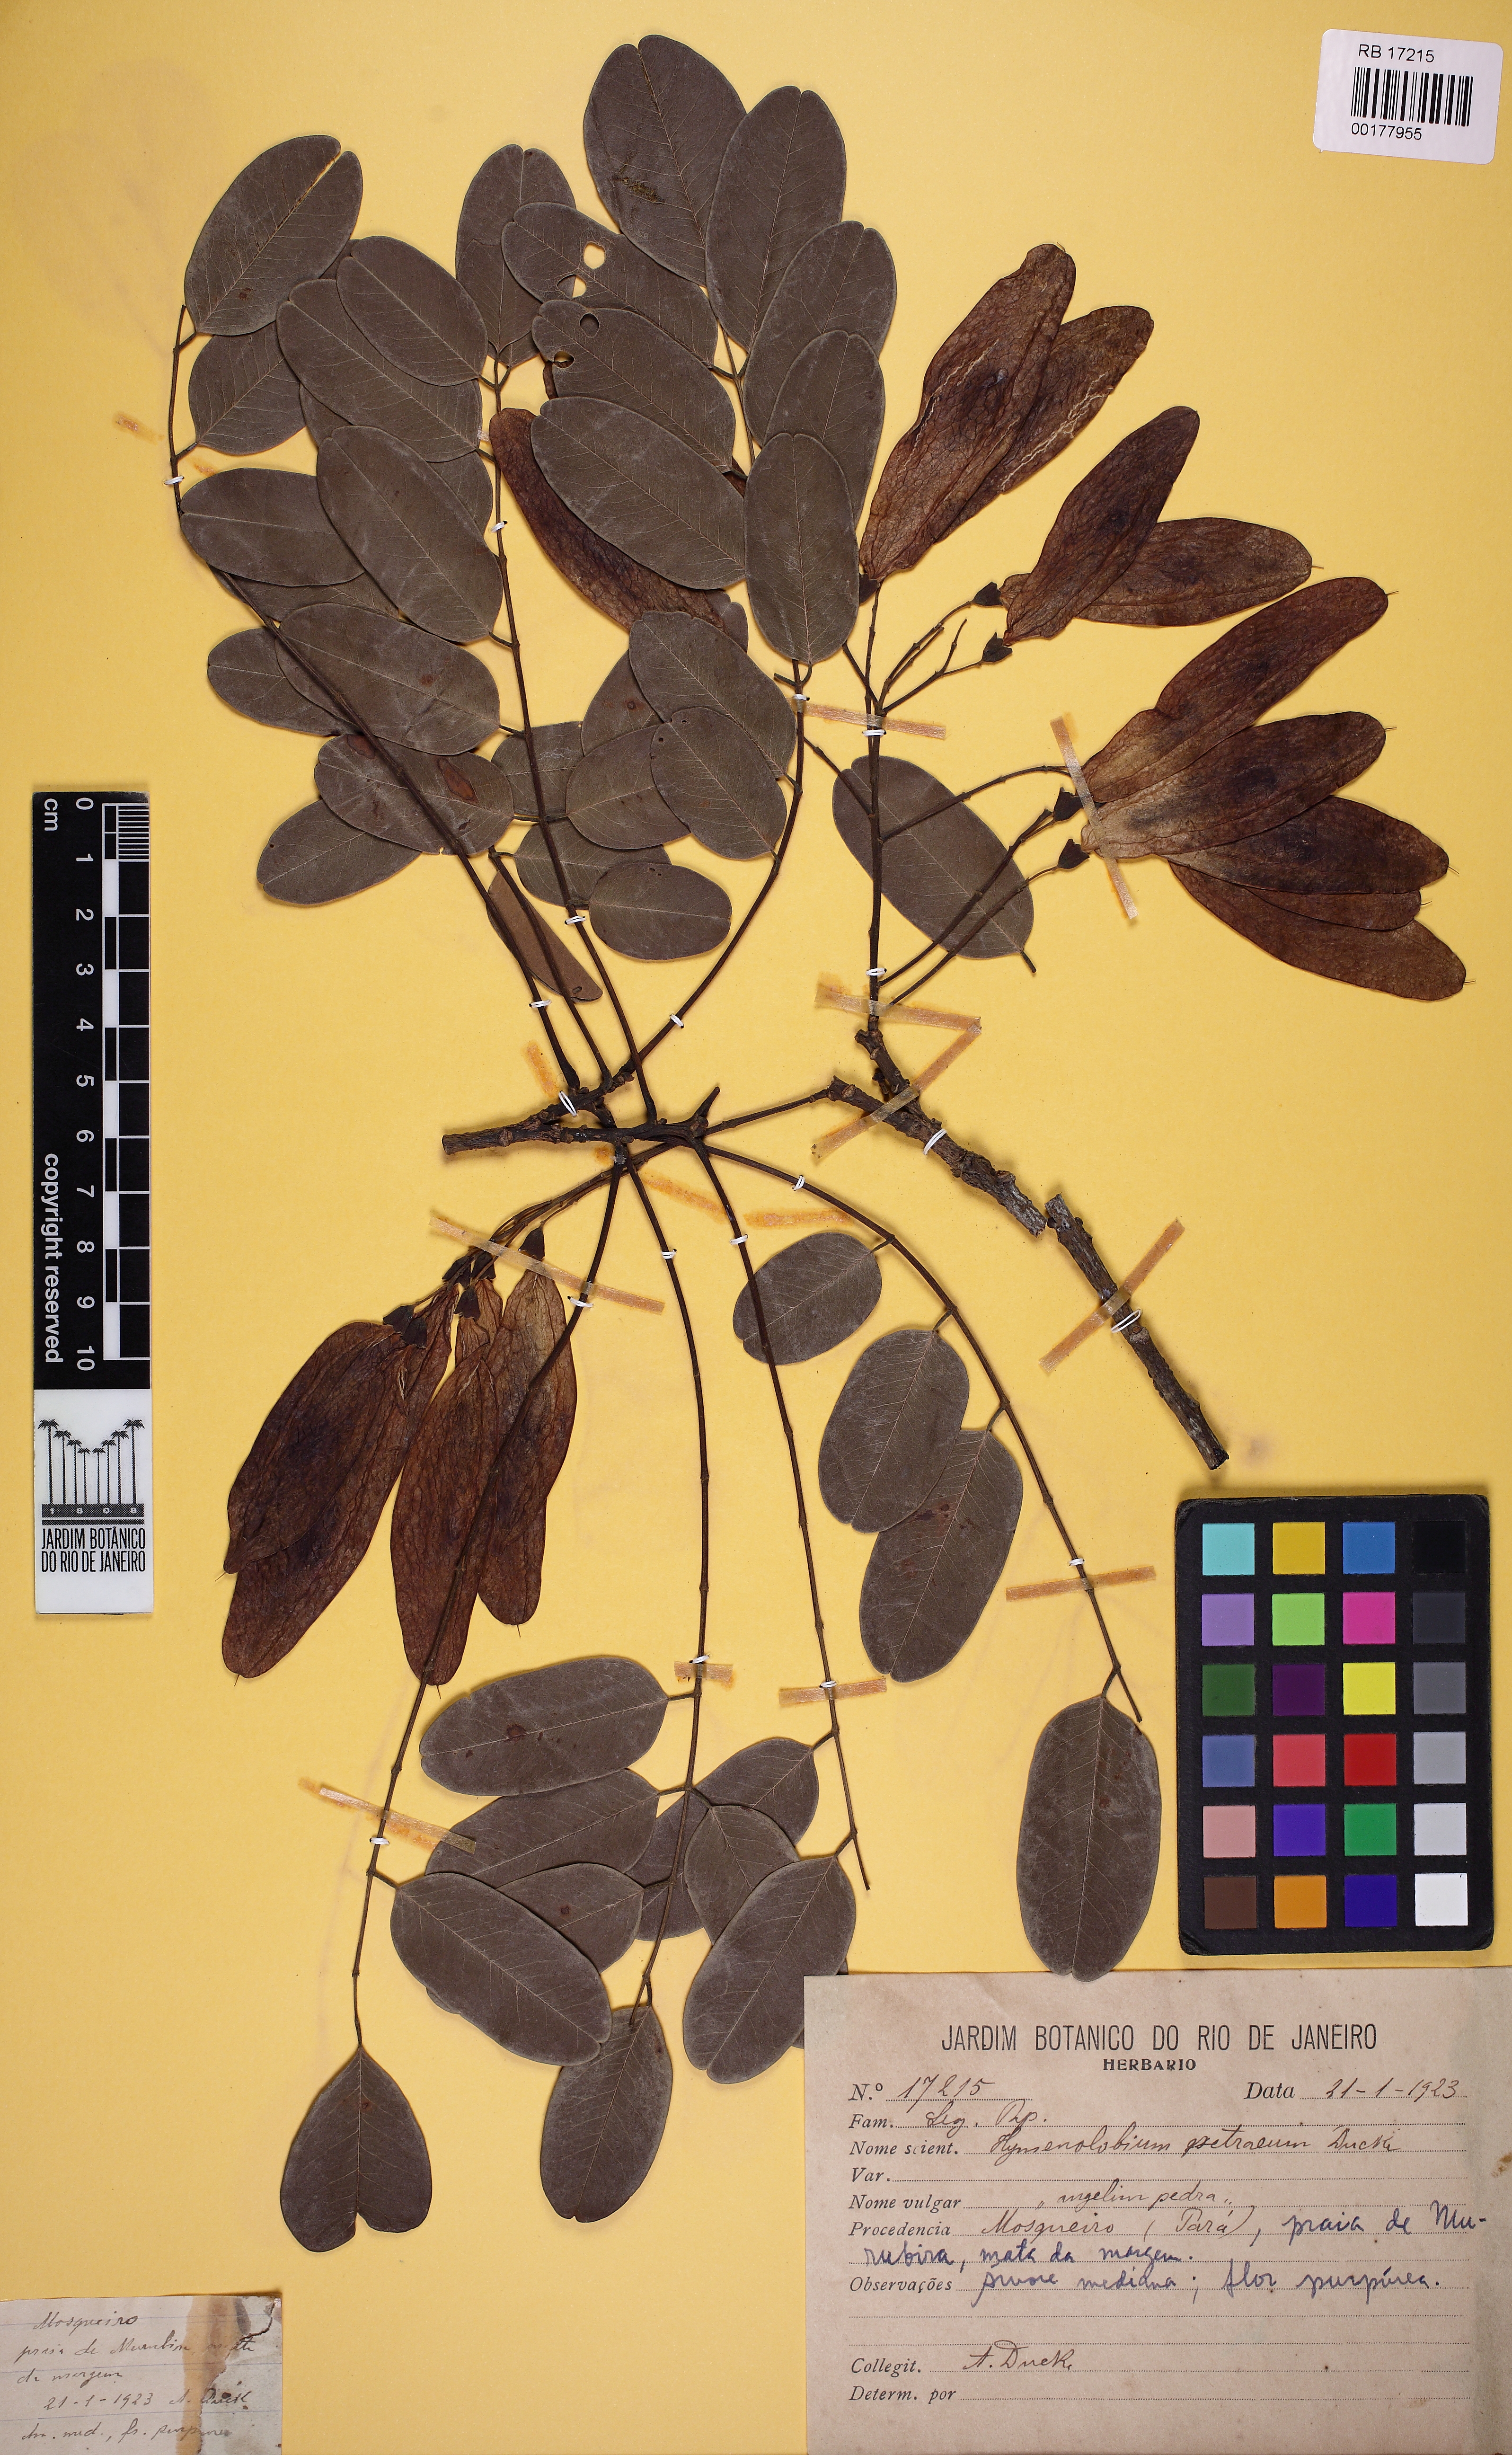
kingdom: Plantae
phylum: Tracheophyta
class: Magnoliopsida
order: Fabales
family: Fabaceae
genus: Hymenolobium
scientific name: Hymenolobium petraeum
